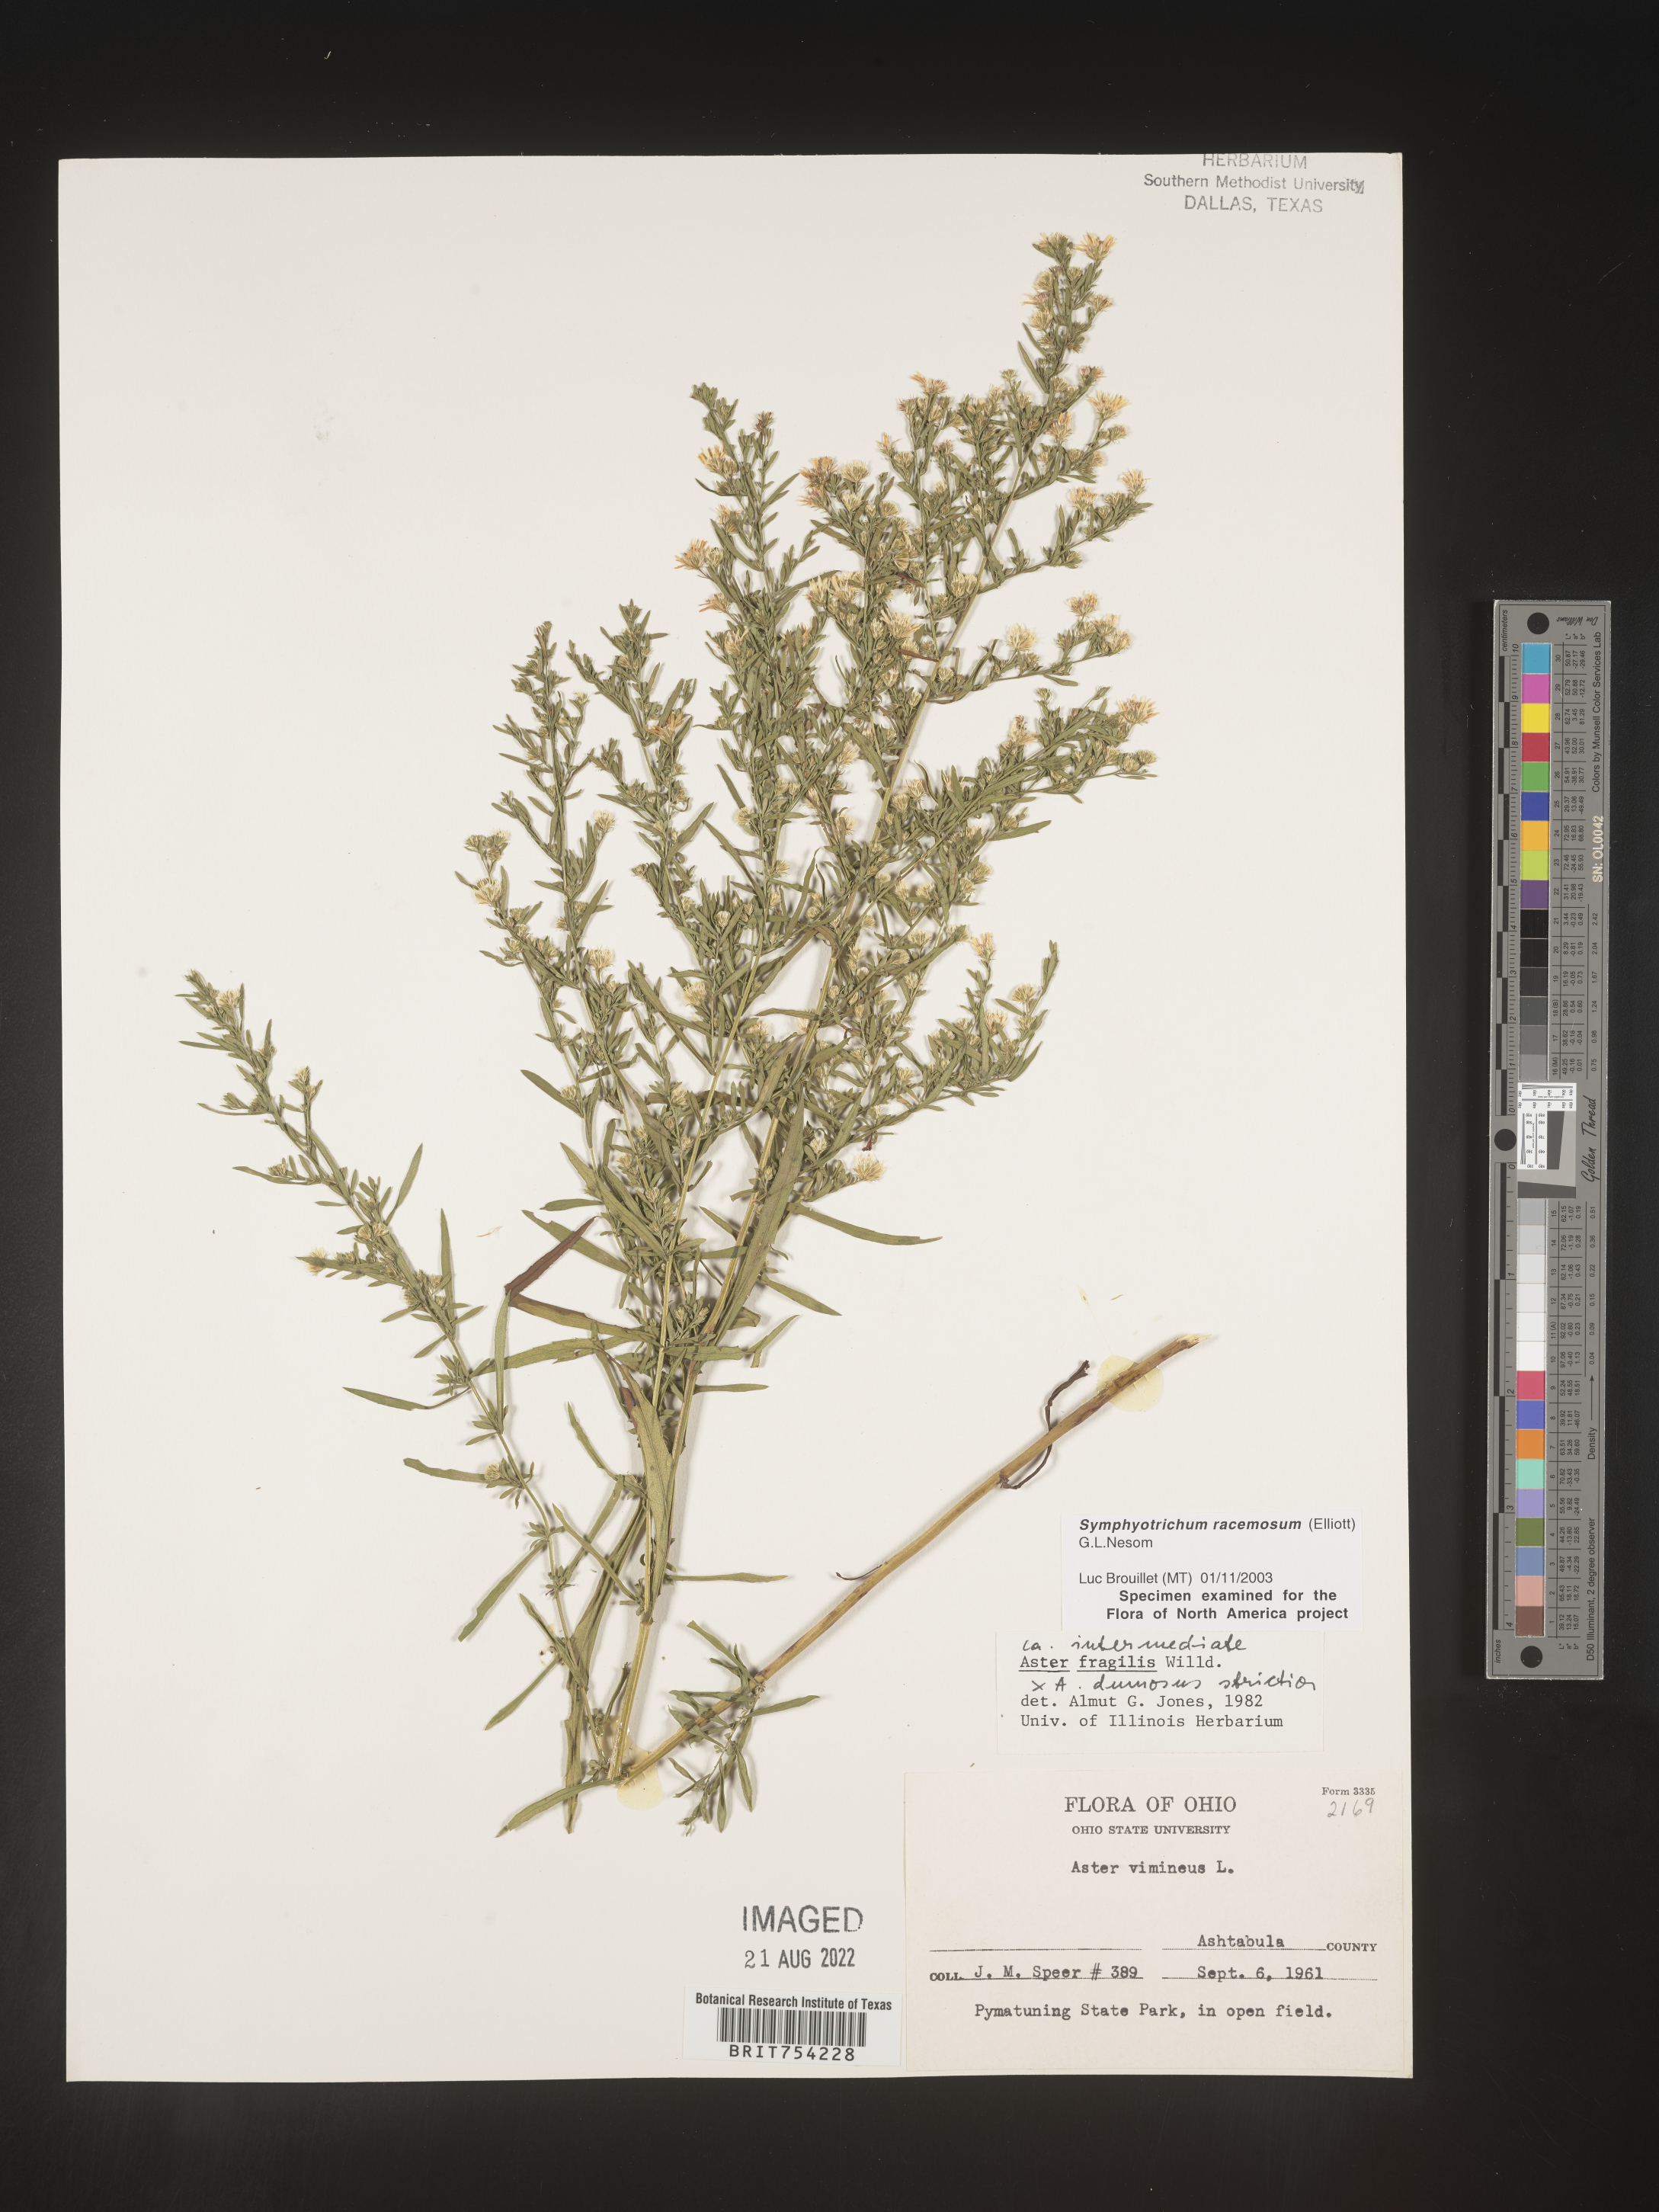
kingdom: Plantae
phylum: Tracheophyta
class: Magnoliopsida
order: Asterales
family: Asteraceae
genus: Symphyotrichum
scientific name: Symphyotrichum racemosum
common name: Small white aster
